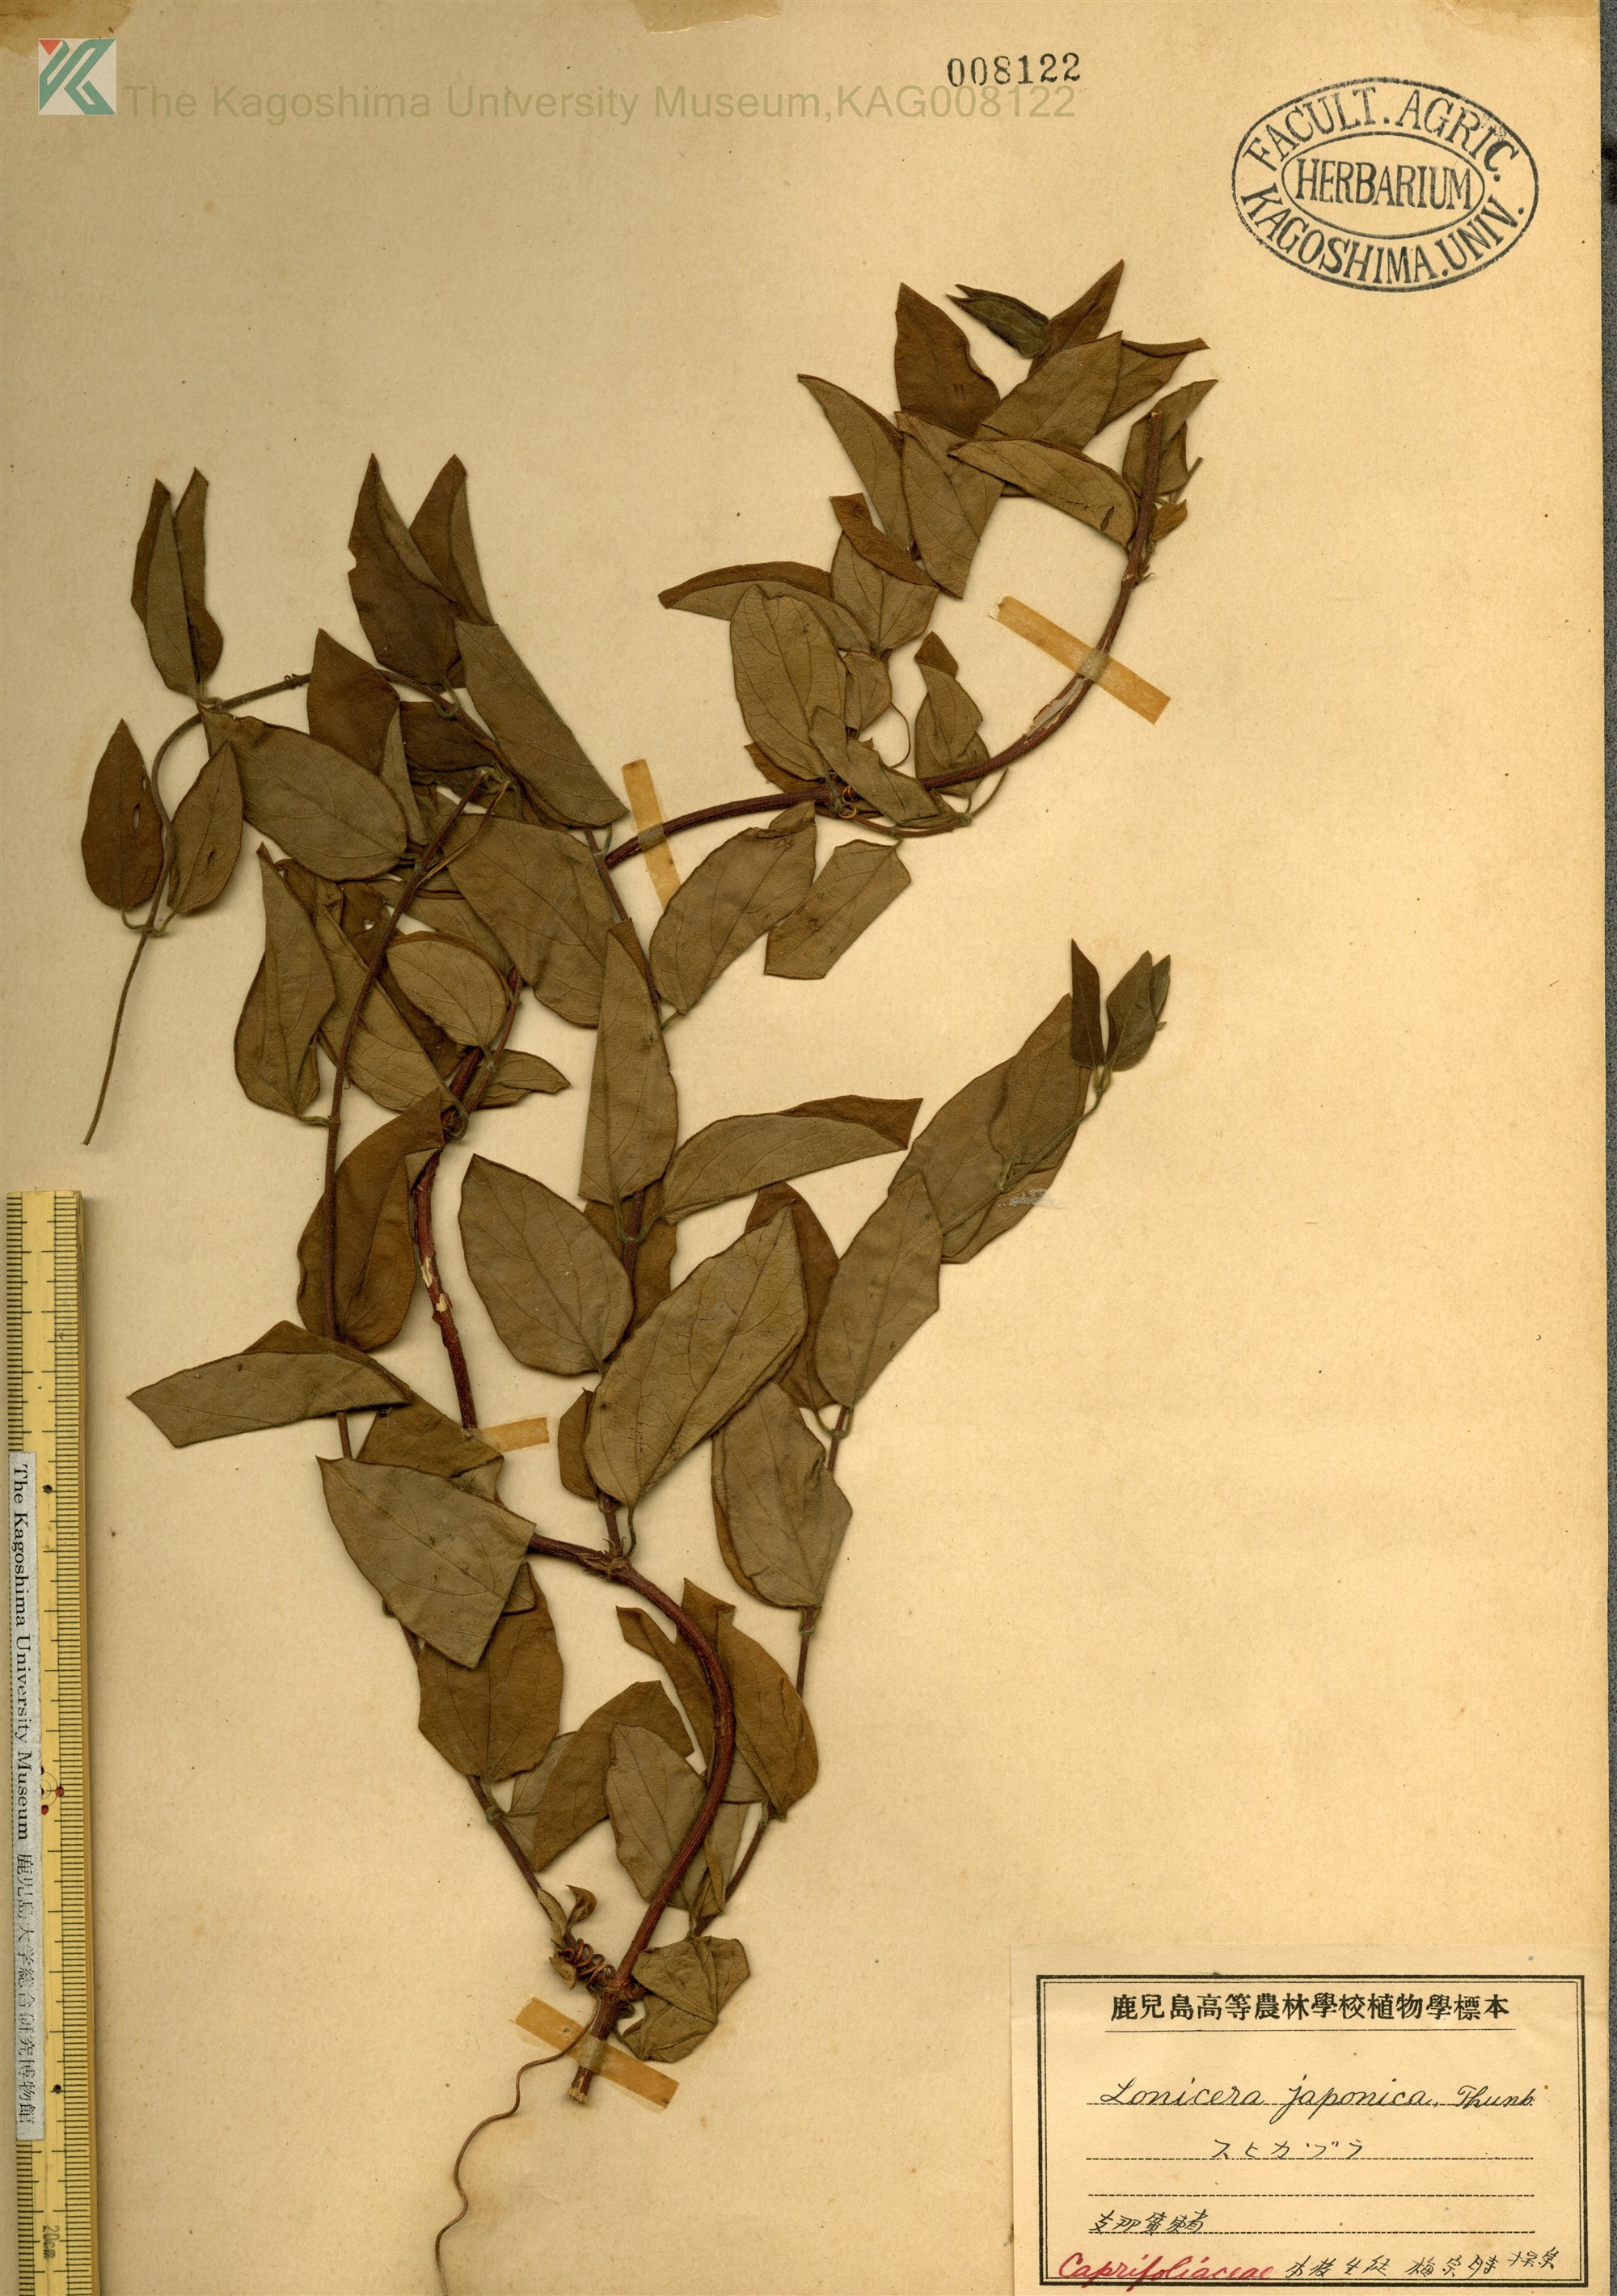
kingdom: Plantae
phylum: Tracheophyta
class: Magnoliopsida
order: Dipsacales
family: Caprifoliaceae
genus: Lonicera
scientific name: Lonicera japonica
